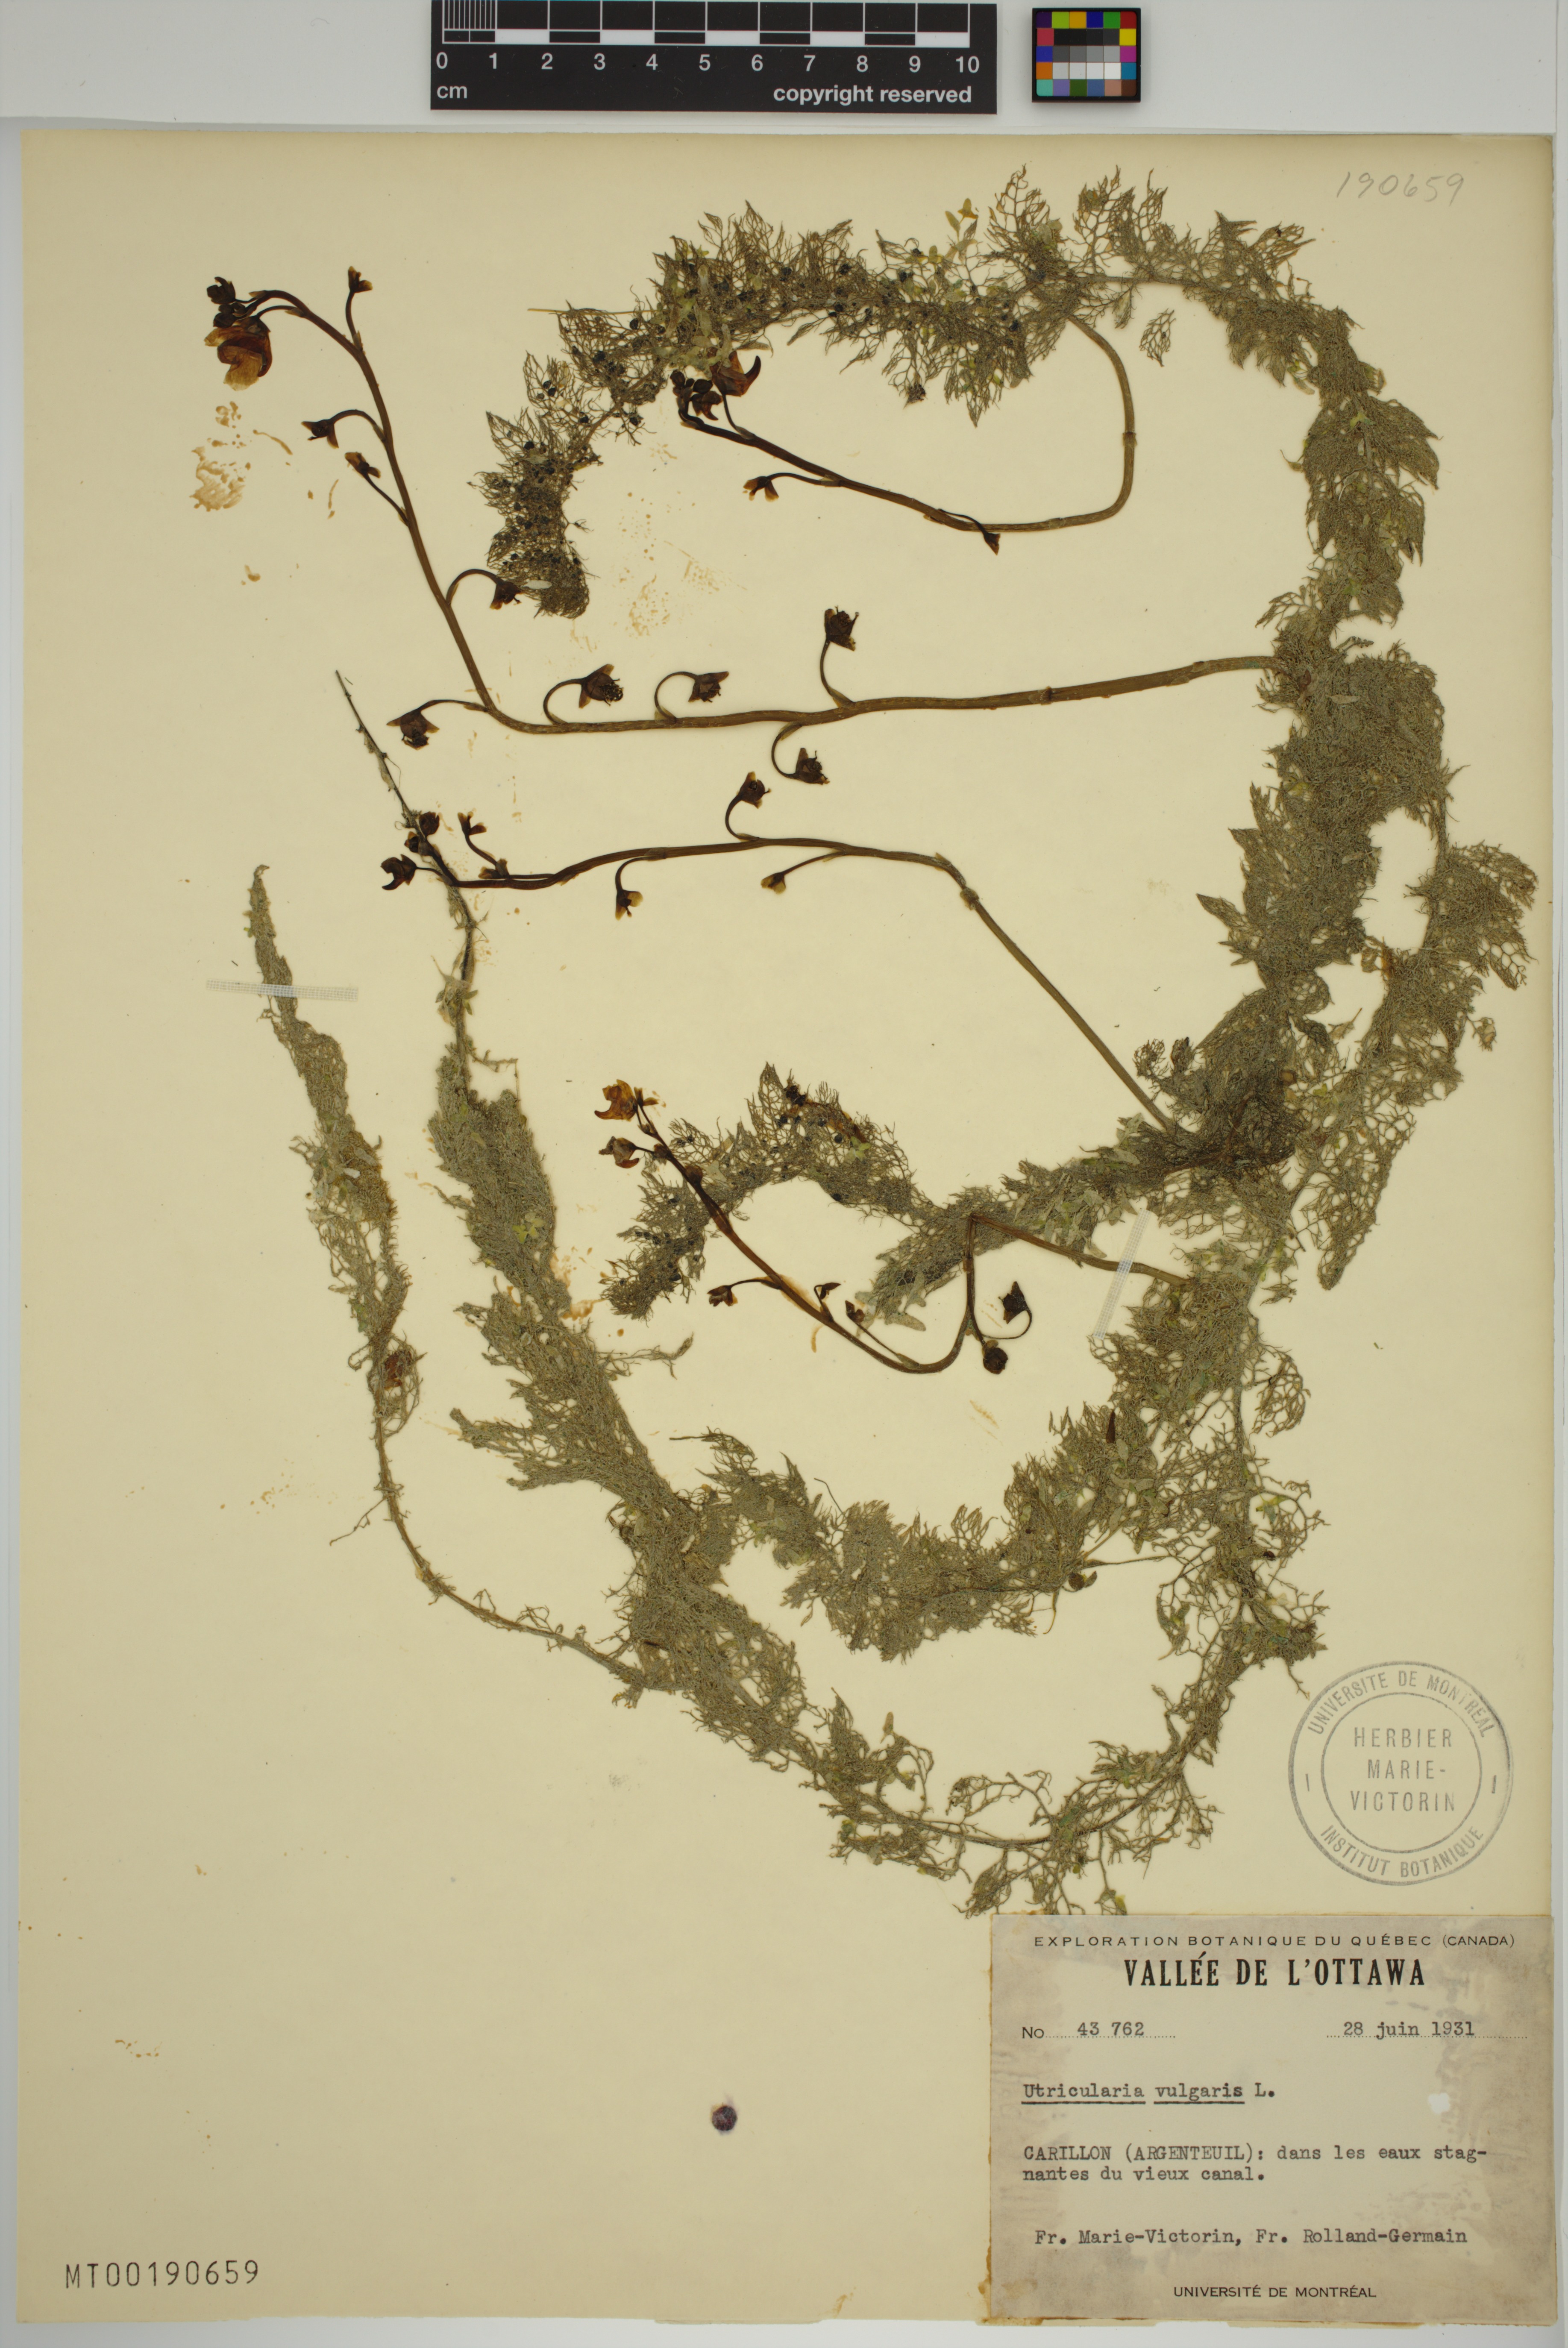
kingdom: Plantae
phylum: Tracheophyta
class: Magnoliopsida
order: Lamiales
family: Lentibulariaceae
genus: Utricularia
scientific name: Utricularia macrorhiza
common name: Common bladderwort
